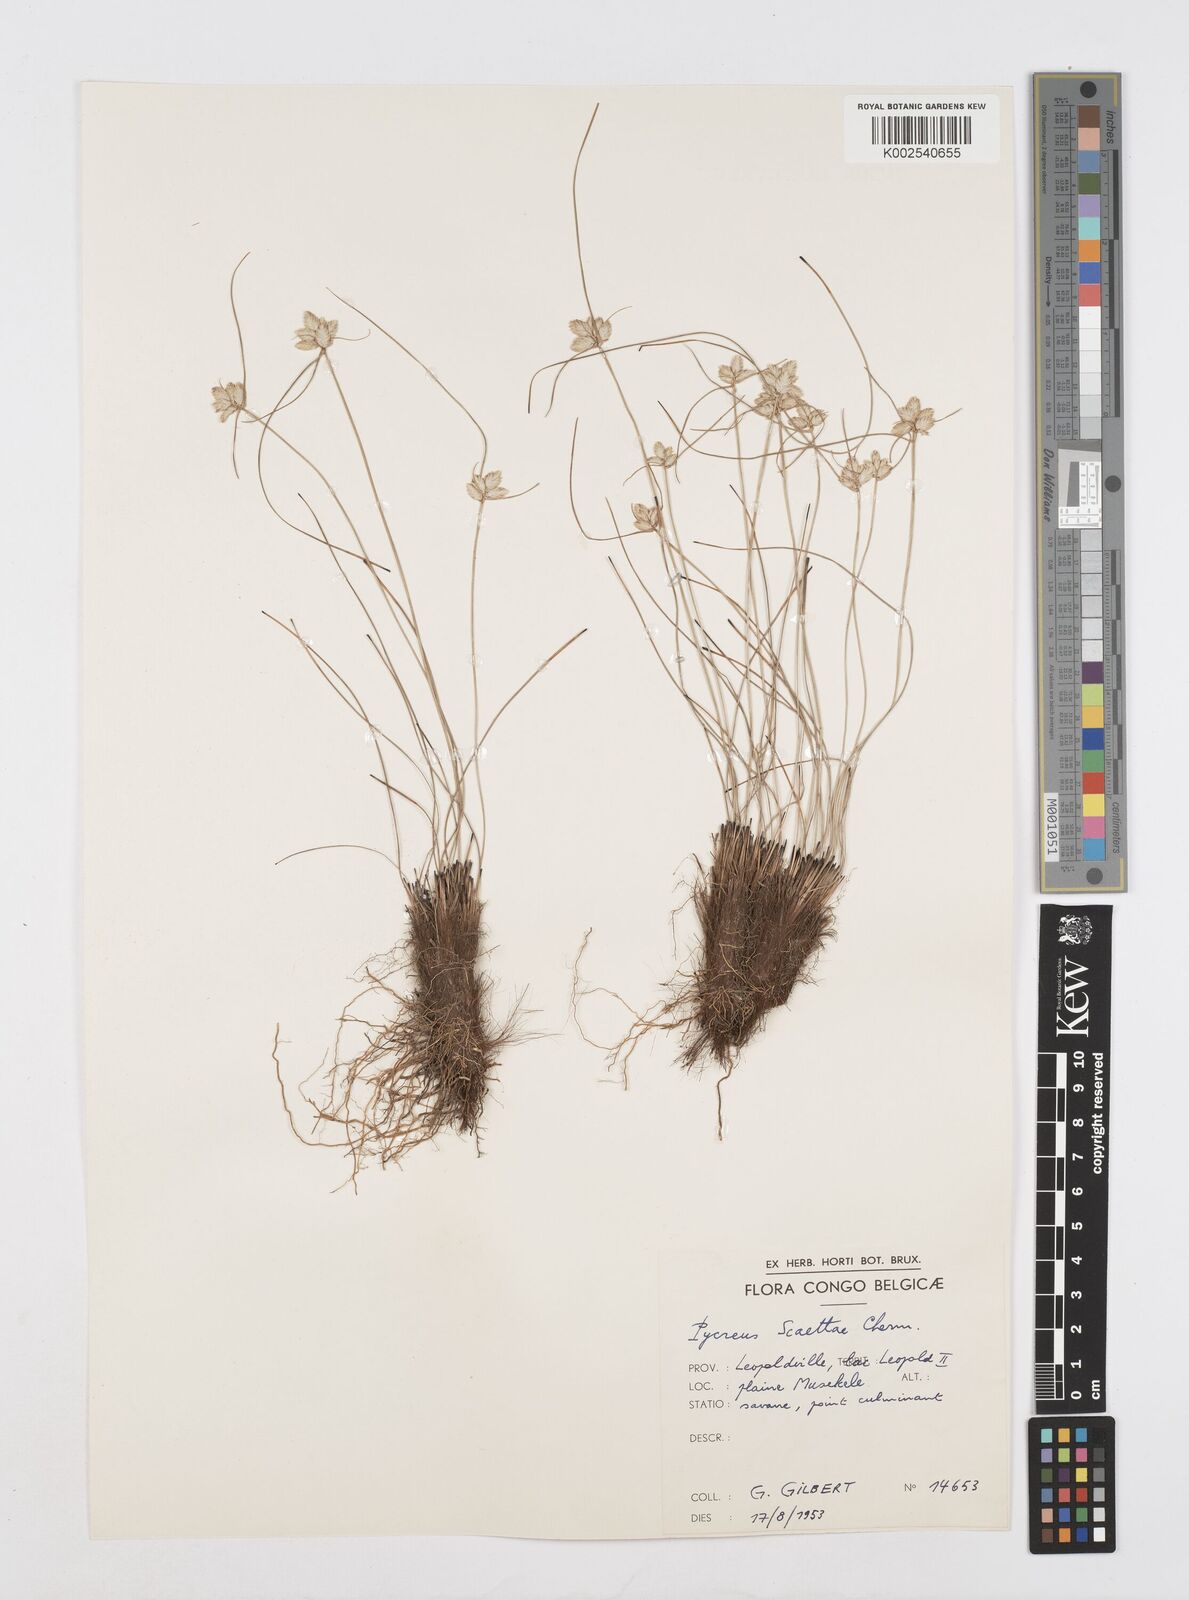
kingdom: Plantae
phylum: Tracheophyta
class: Liliopsida
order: Poales
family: Cyperaceae
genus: Cyperus
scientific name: Cyperus scaettae
